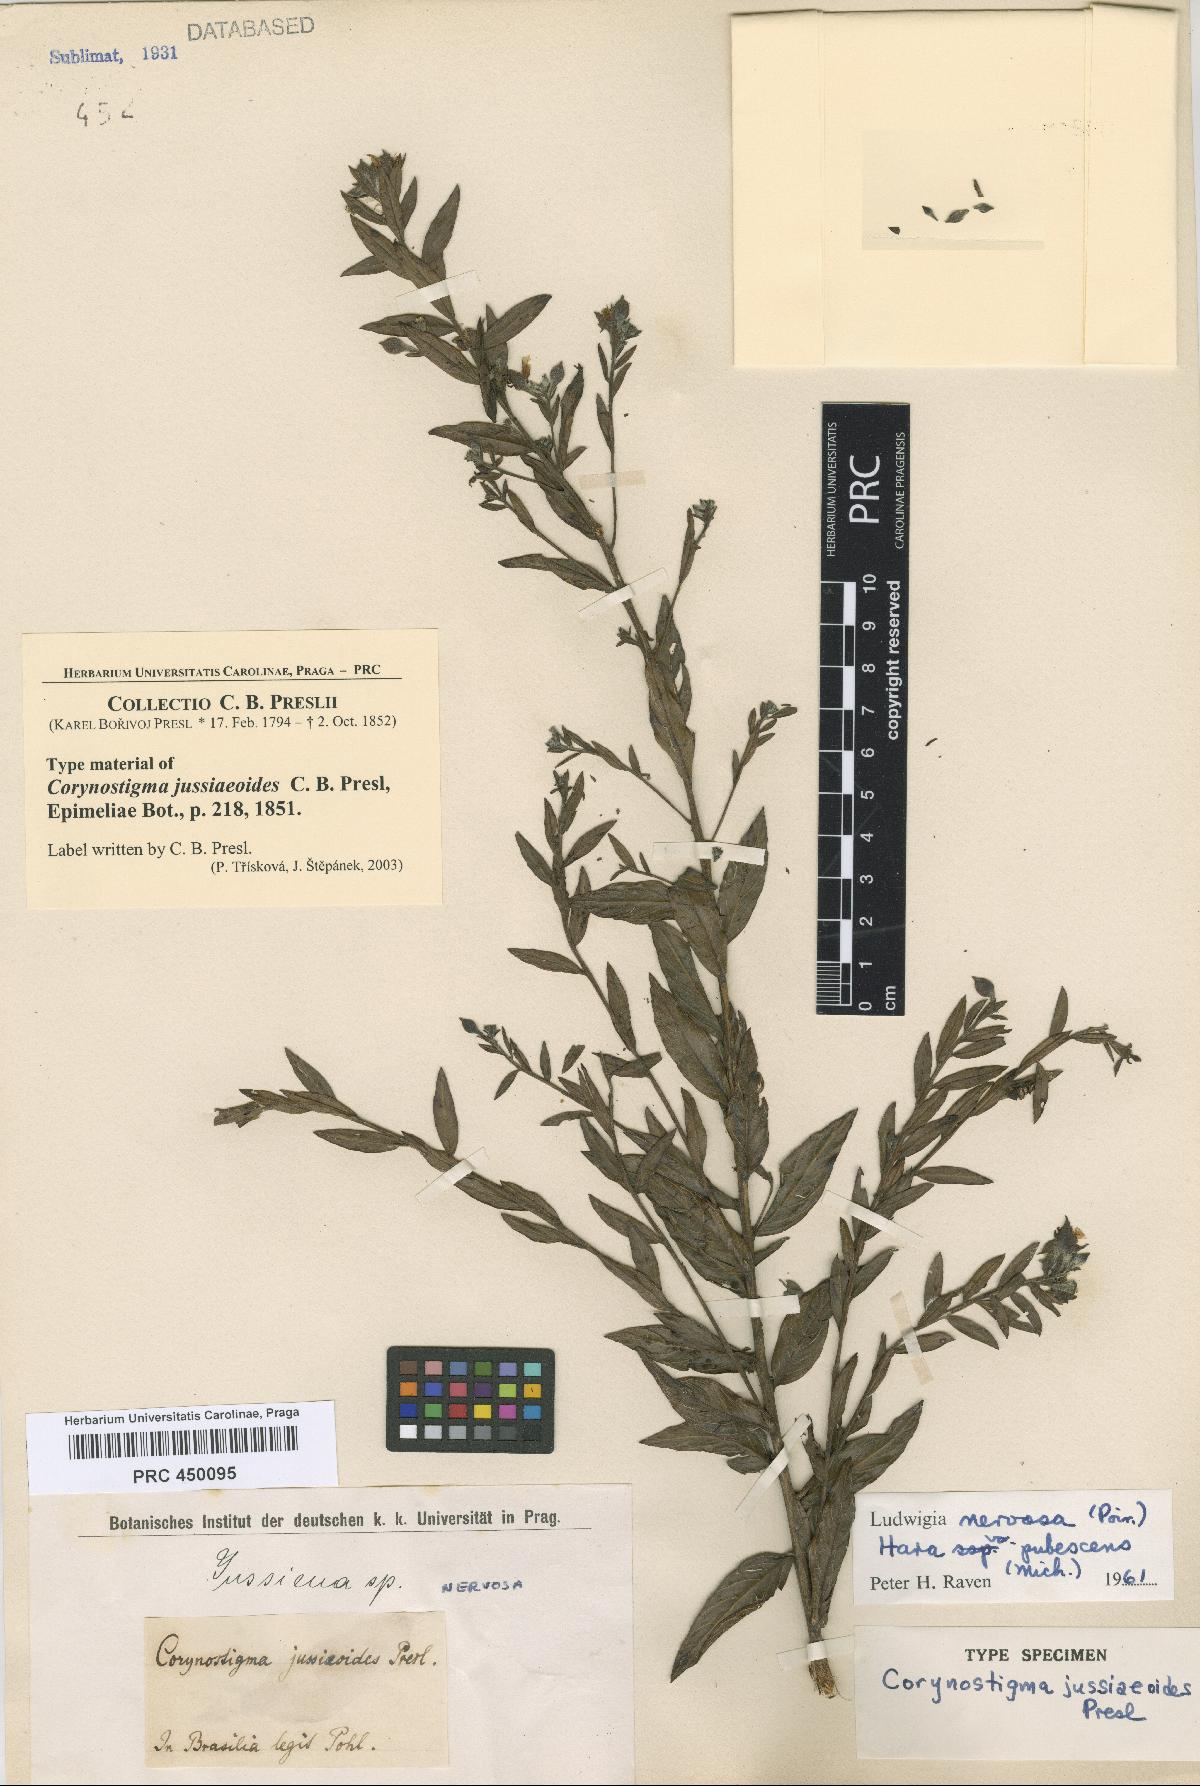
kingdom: Plantae
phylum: Tracheophyta
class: Magnoliopsida
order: Myrtales
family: Onagraceae
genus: Ludwigia
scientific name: Ludwigia nervosa
